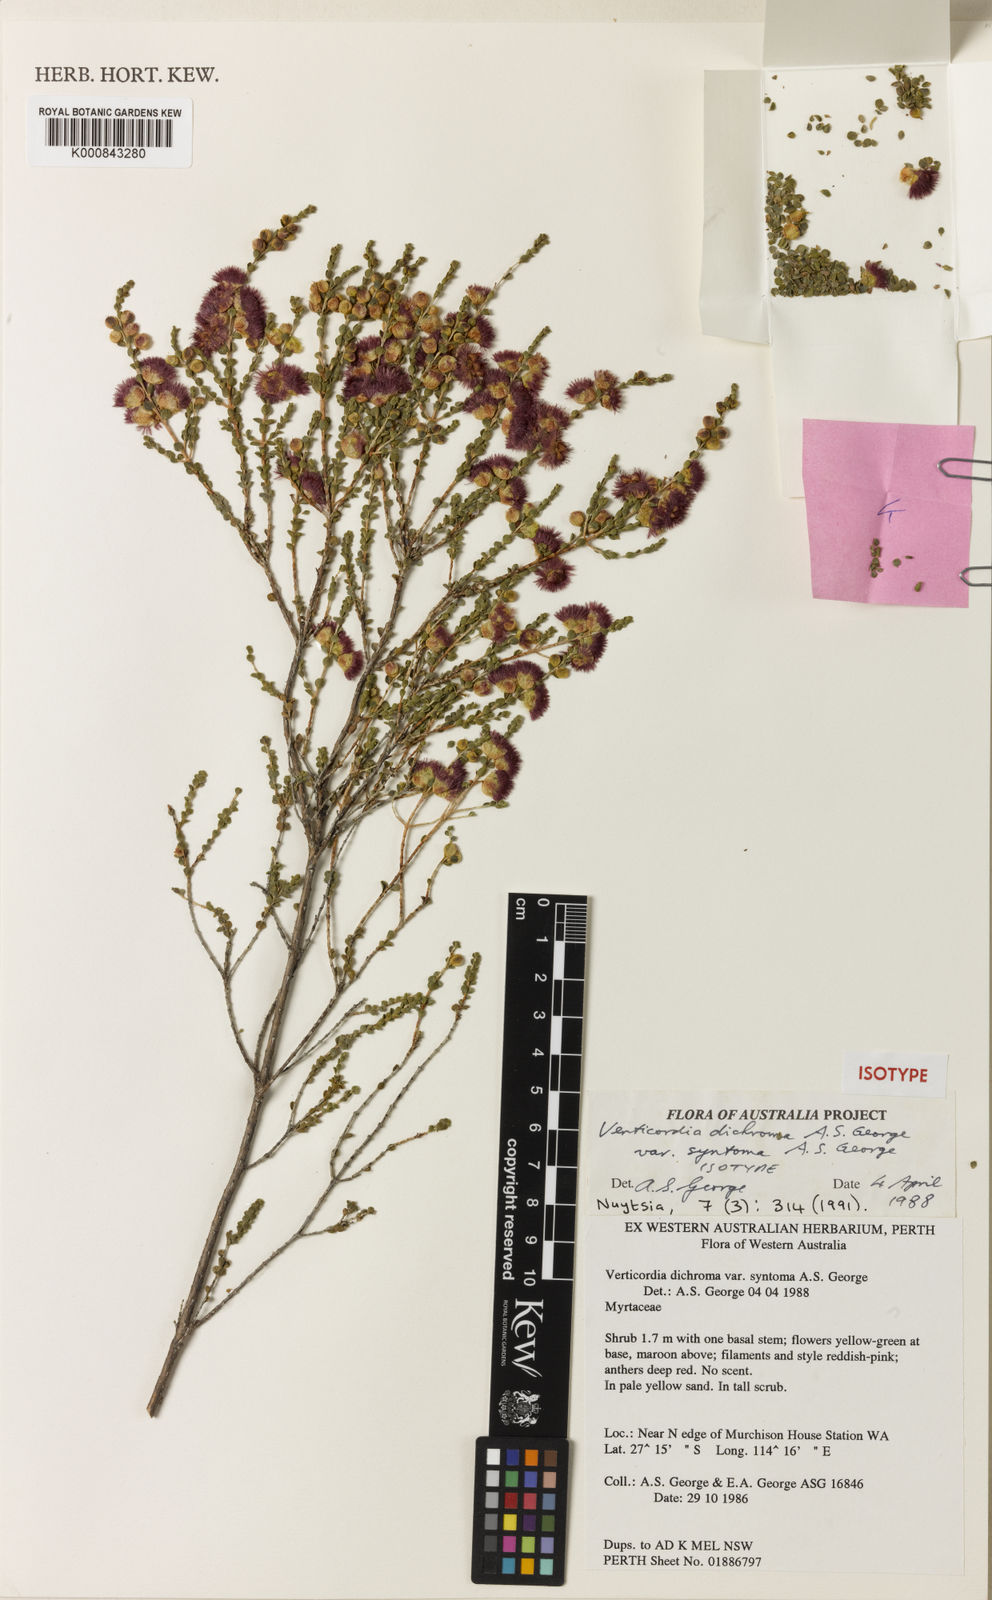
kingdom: Plantae
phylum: Tracheophyta
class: Magnoliopsida
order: Myrtales
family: Myrtaceae
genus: Verticordia
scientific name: Verticordia dichroma
